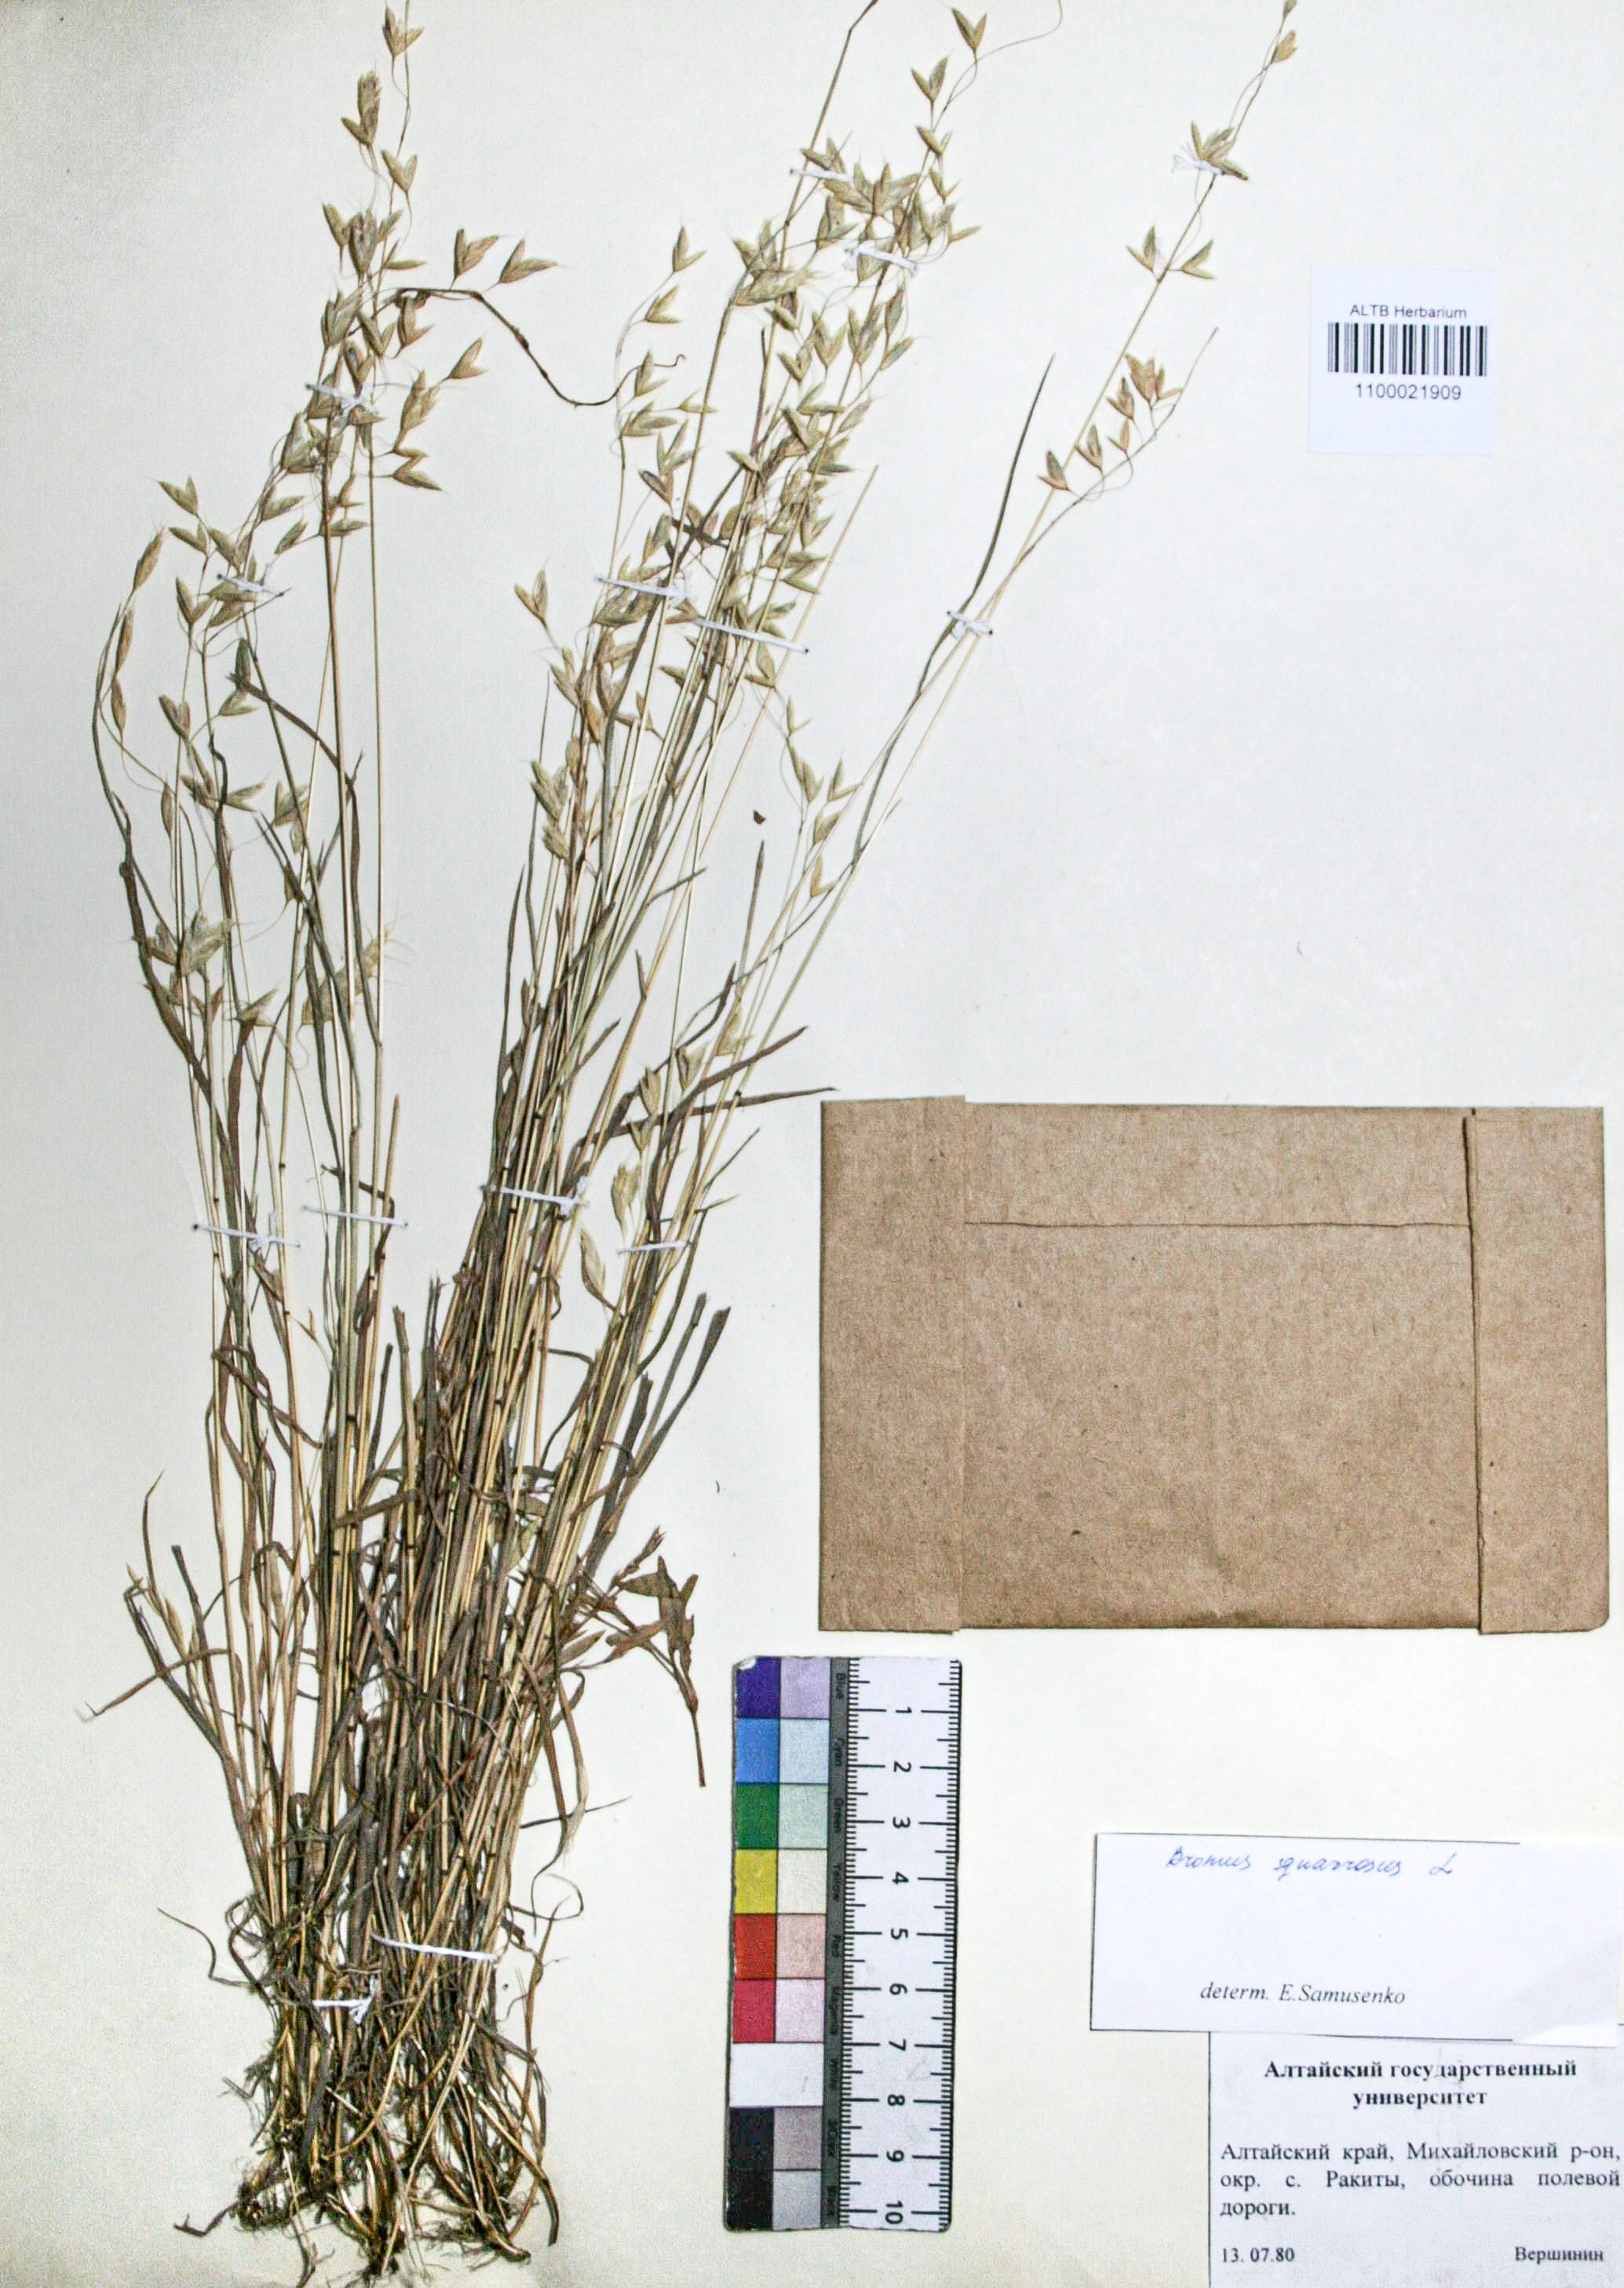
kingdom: Plantae
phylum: Tracheophyta
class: Liliopsida
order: Poales
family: Poaceae
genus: Bromus
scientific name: Bromus squarrosus
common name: Corn brome
